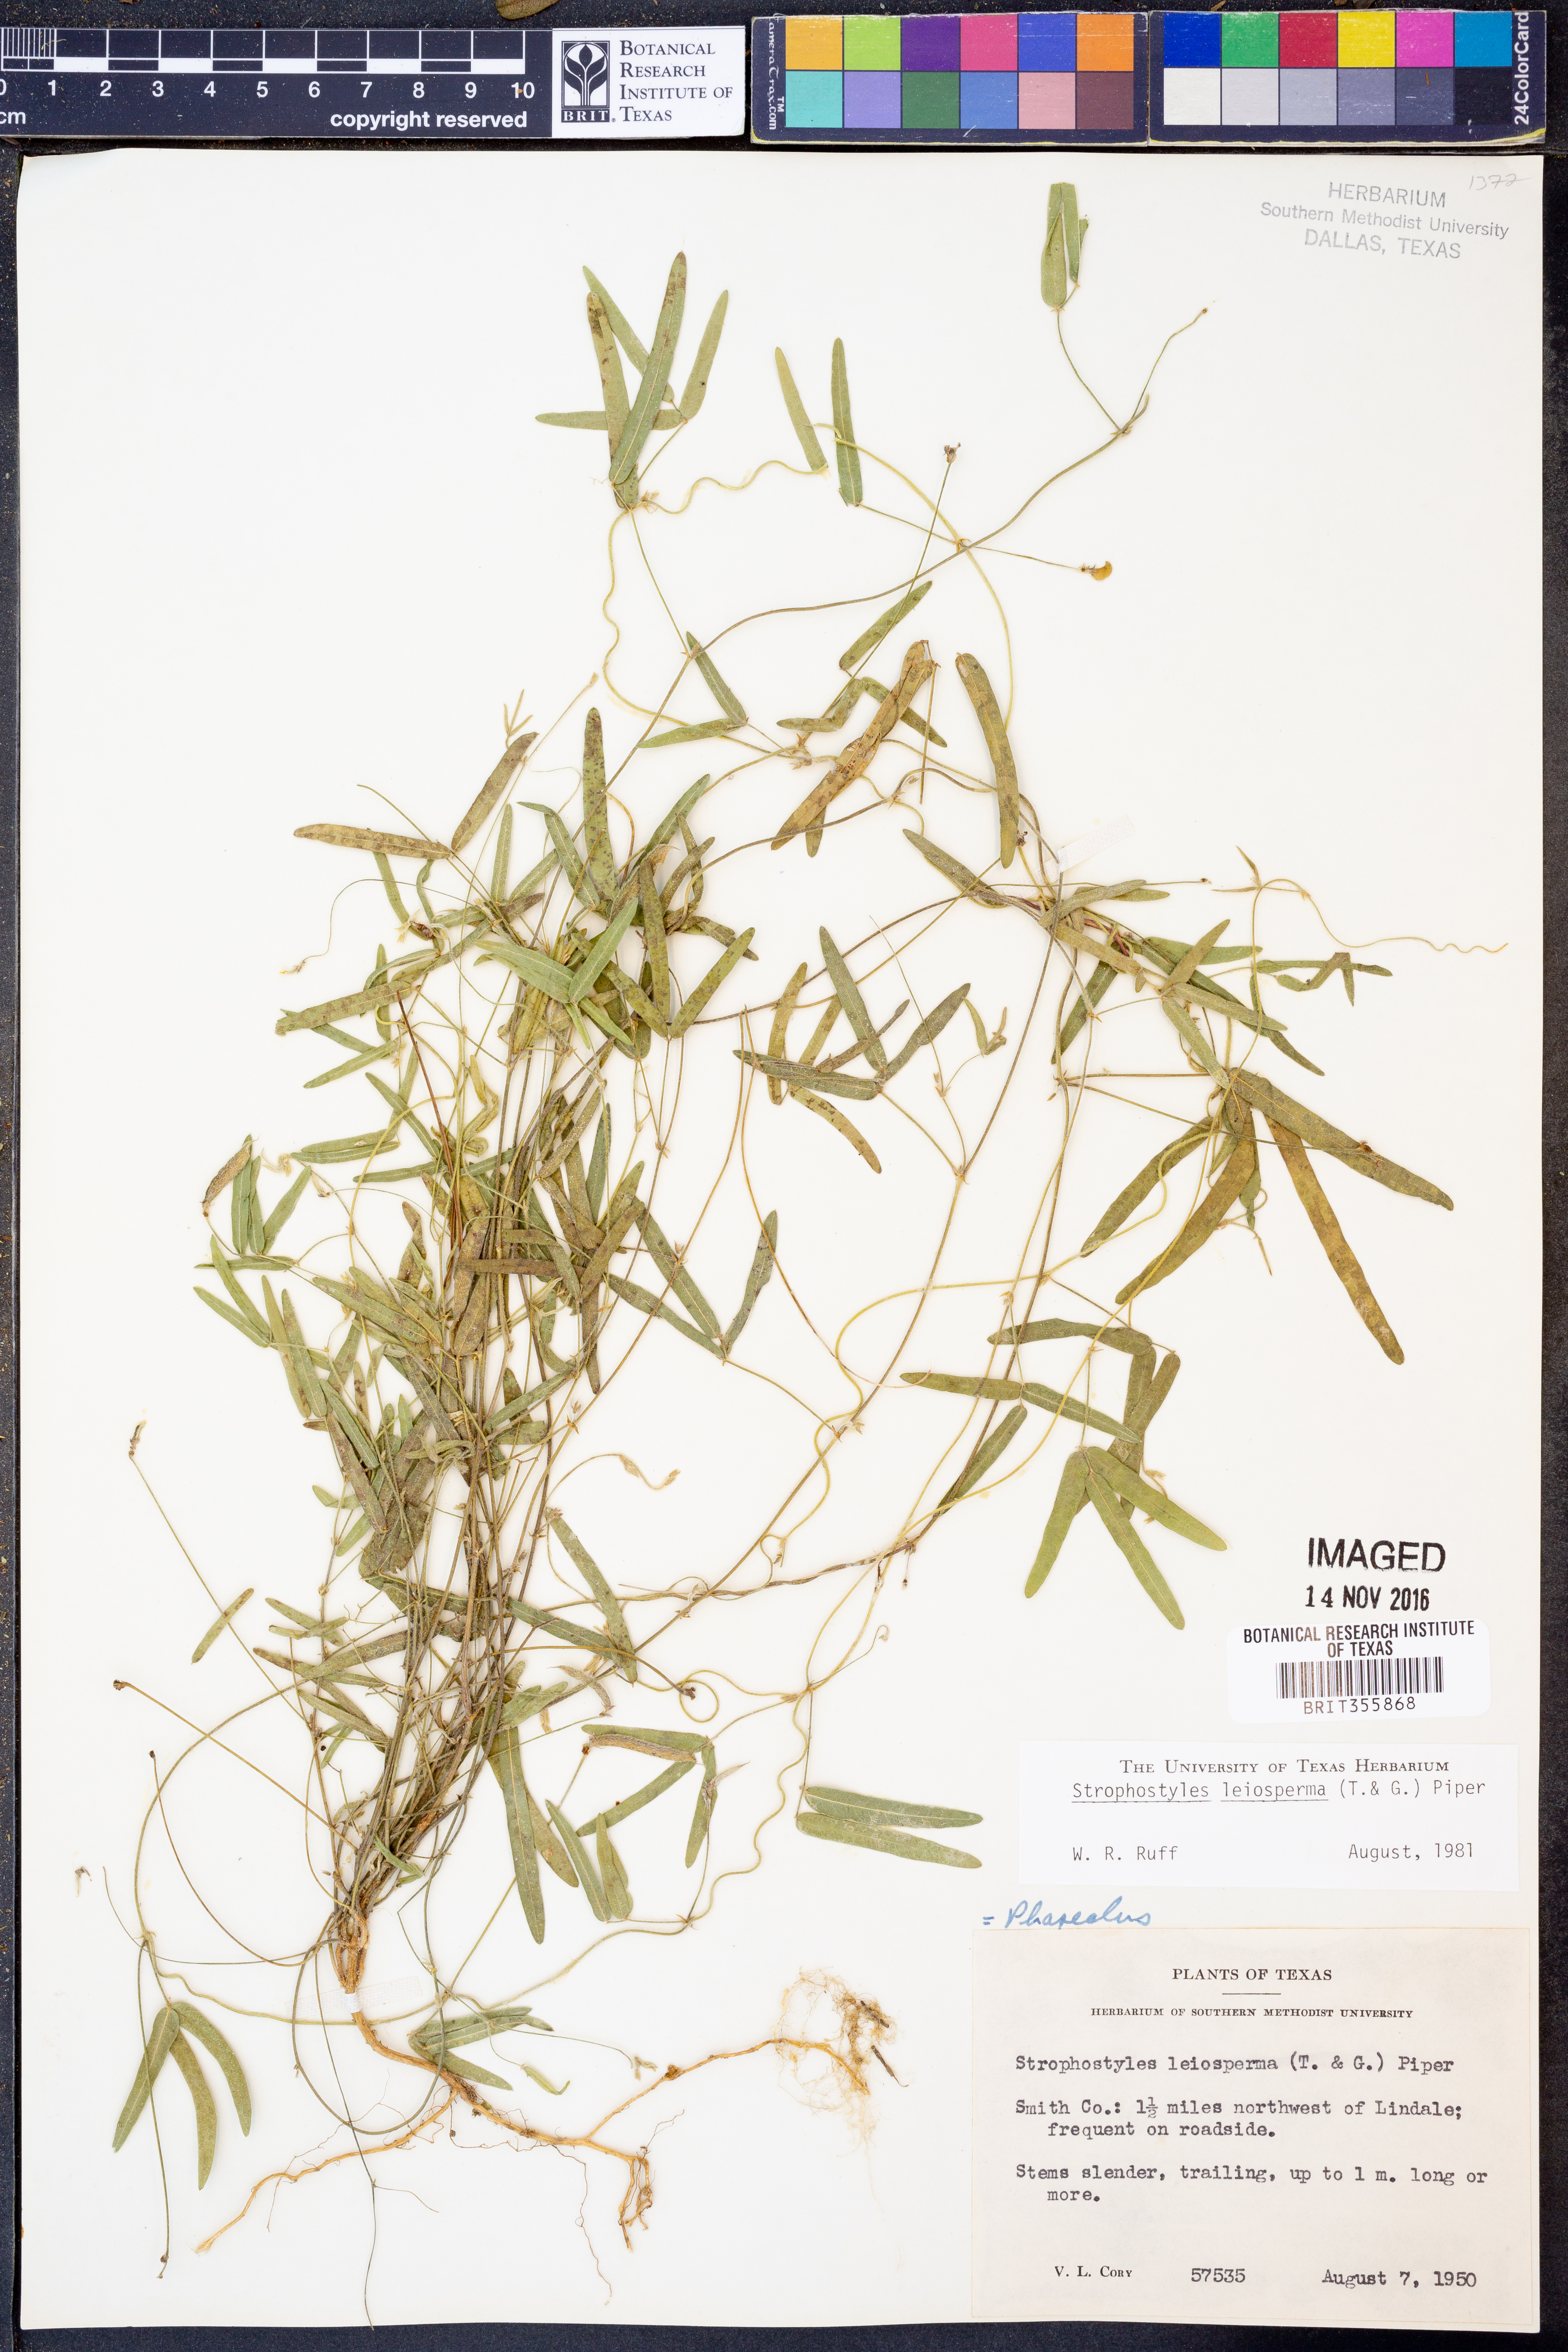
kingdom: Plantae
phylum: Tracheophyta
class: Magnoliopsida
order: Fabales
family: Fabaceae
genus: Strophostyles
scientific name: Strophostyles leiosperma
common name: Smooth-seed wild bean
